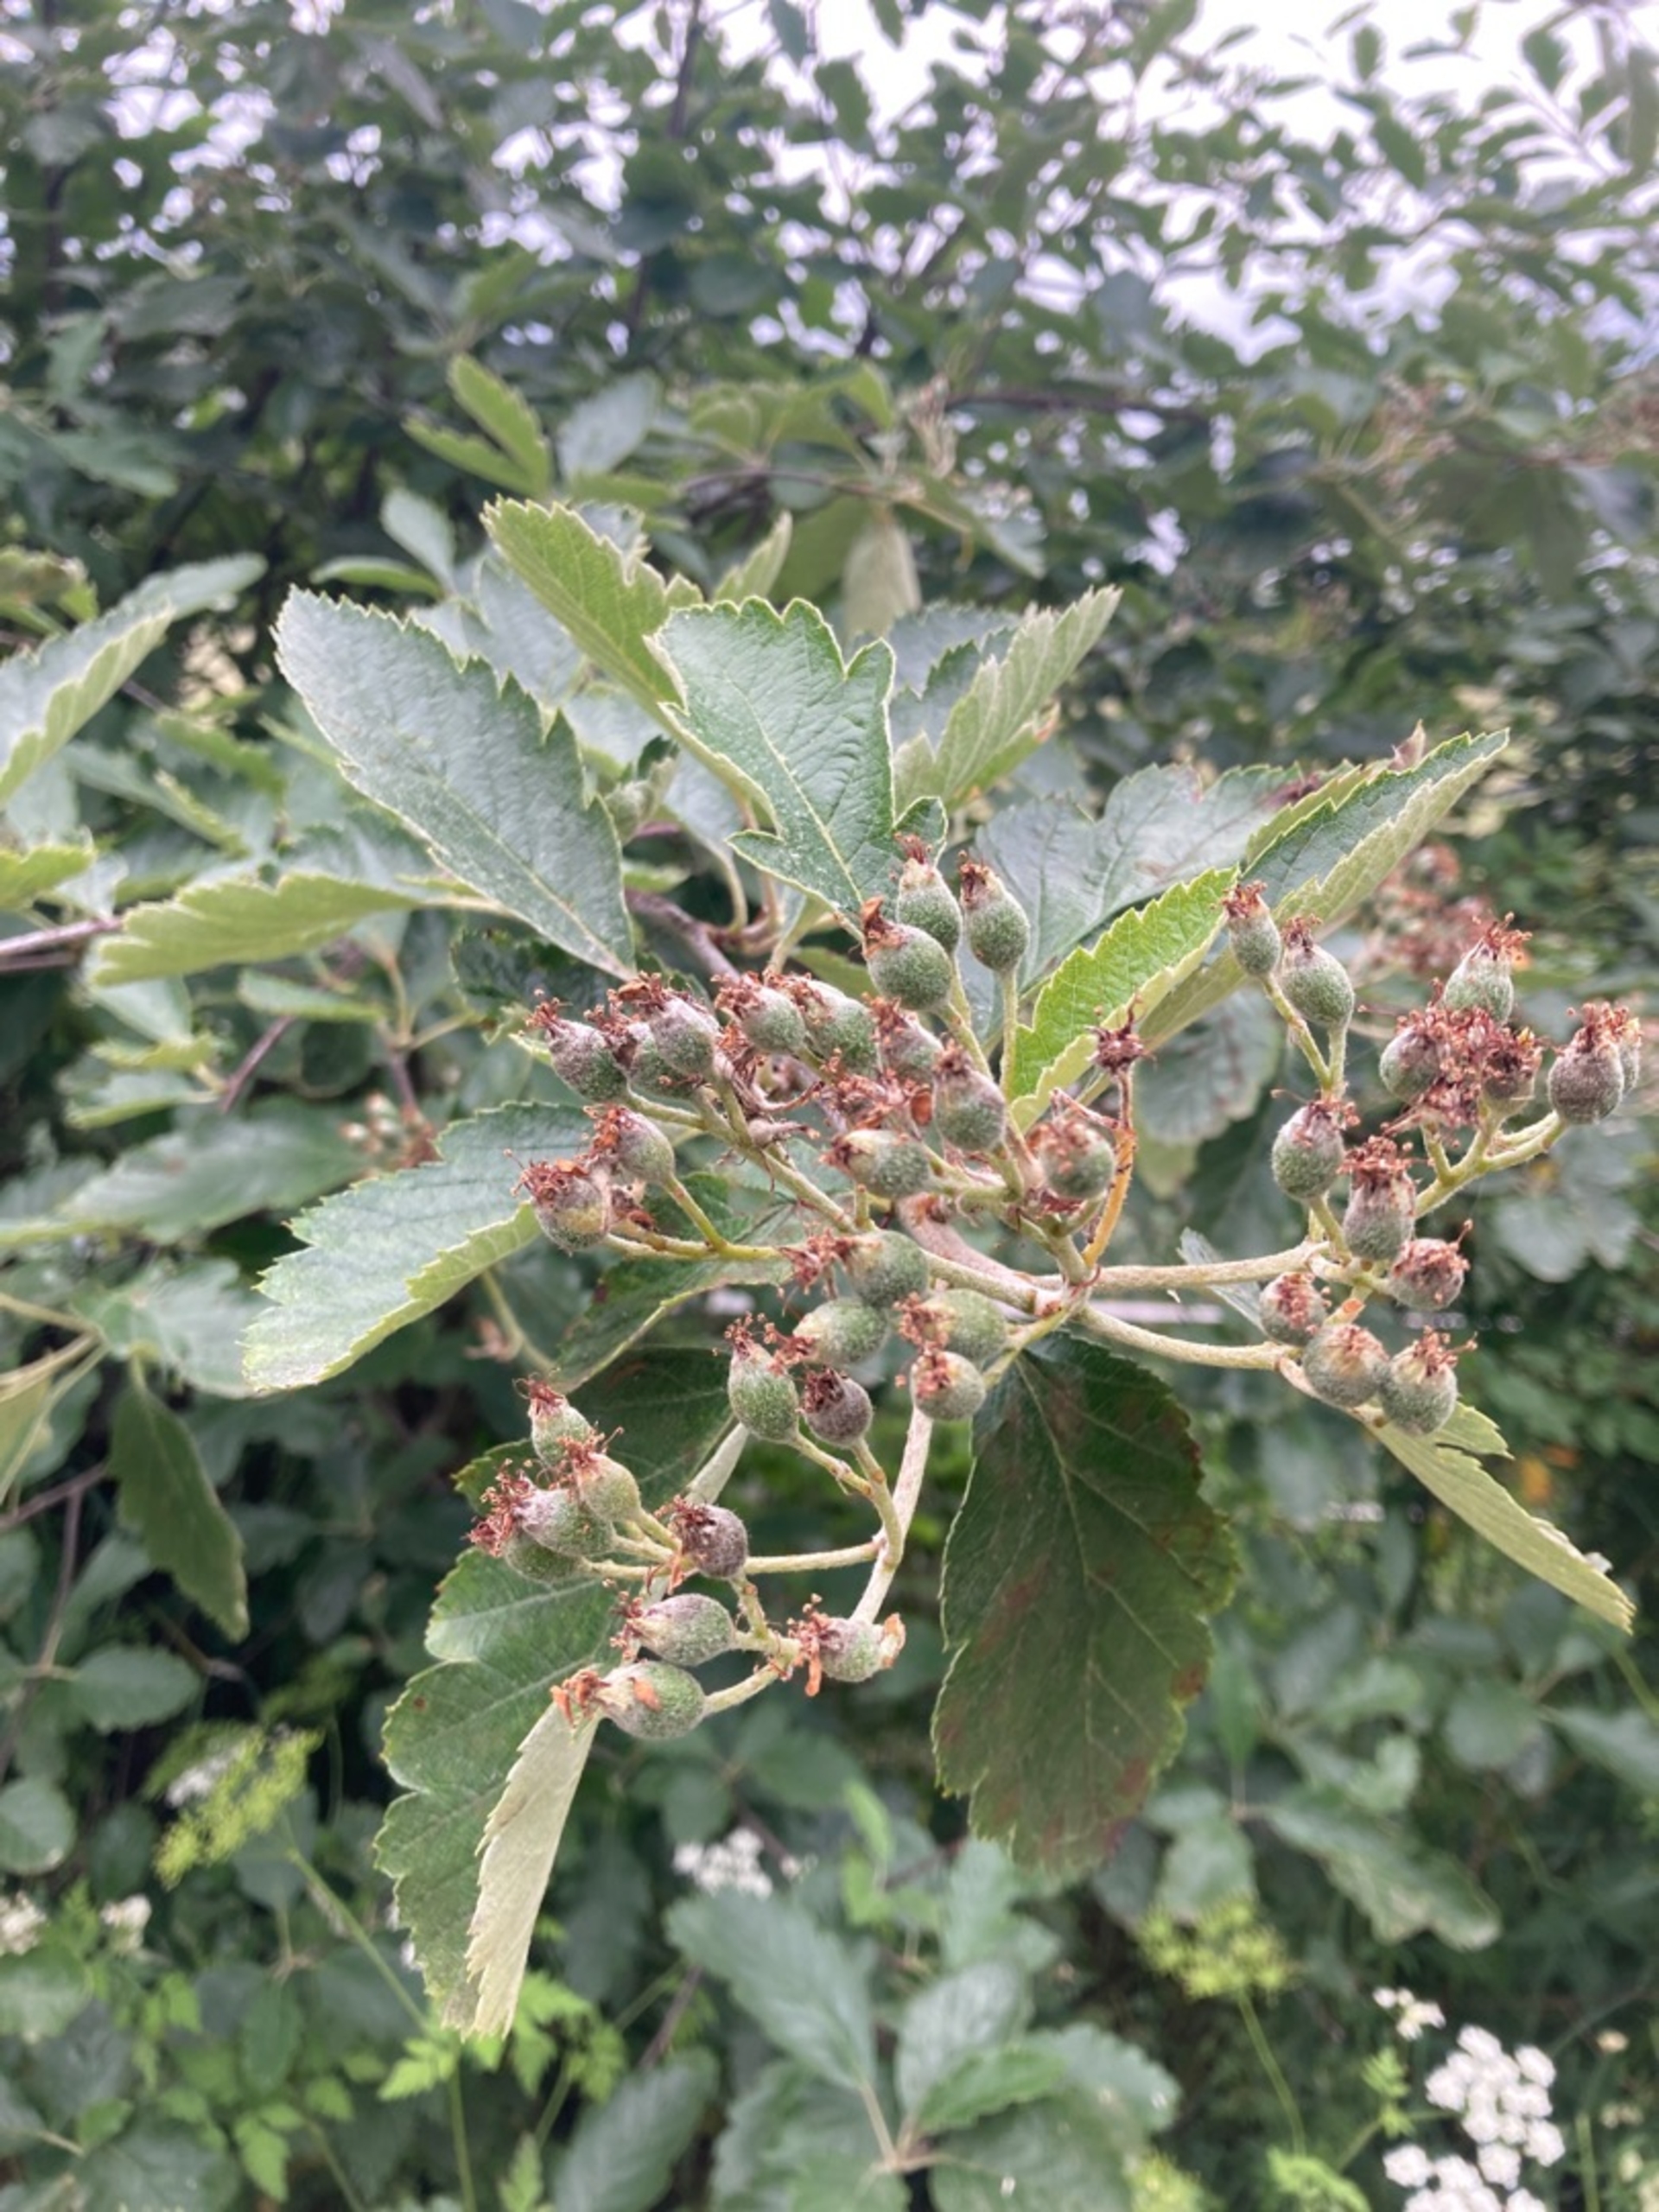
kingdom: Plantae
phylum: Tracheophyta
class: Magnoliopsida
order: Rosales
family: Rosaceae
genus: Scandosorbus
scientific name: Scandosorbus intermedia
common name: Selje-røn
